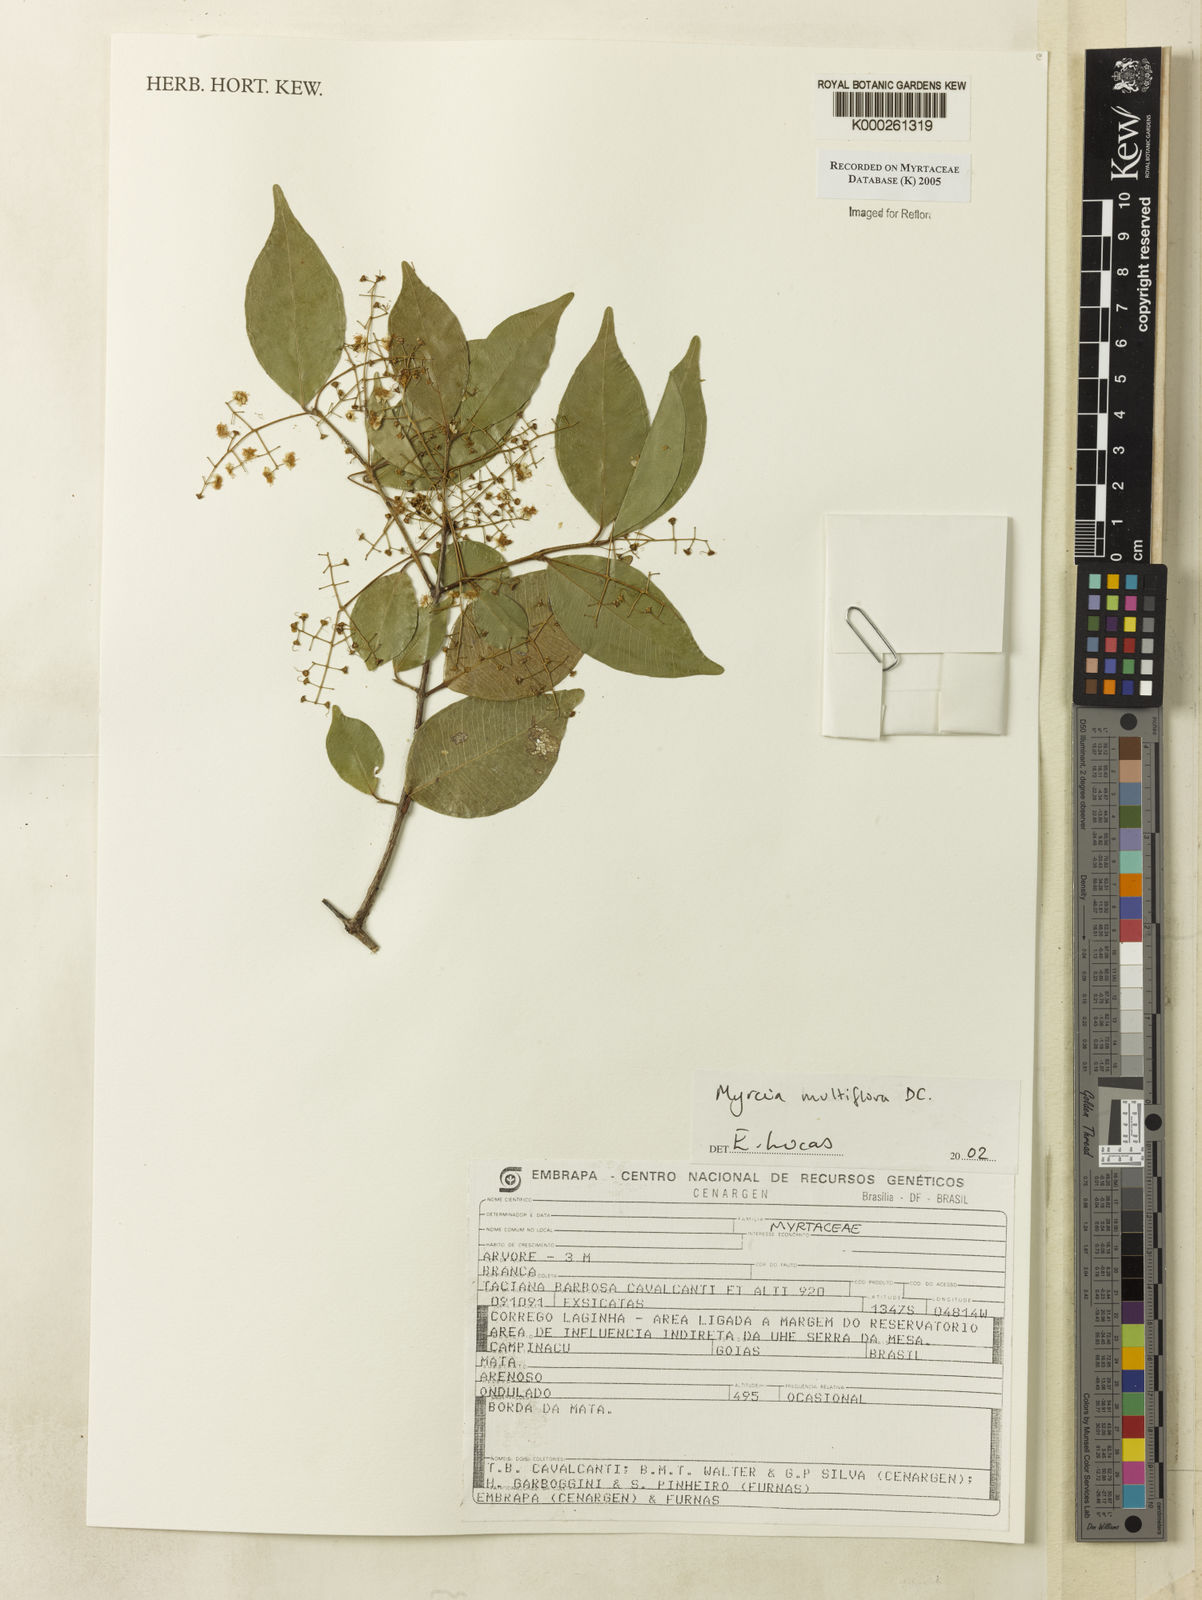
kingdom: Plantae
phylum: Tracheophyta
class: Magnoliopsida
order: Myrtales
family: Myrtaceae
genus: Myrcia
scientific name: Myrcia multiflora
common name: Pedra hume
